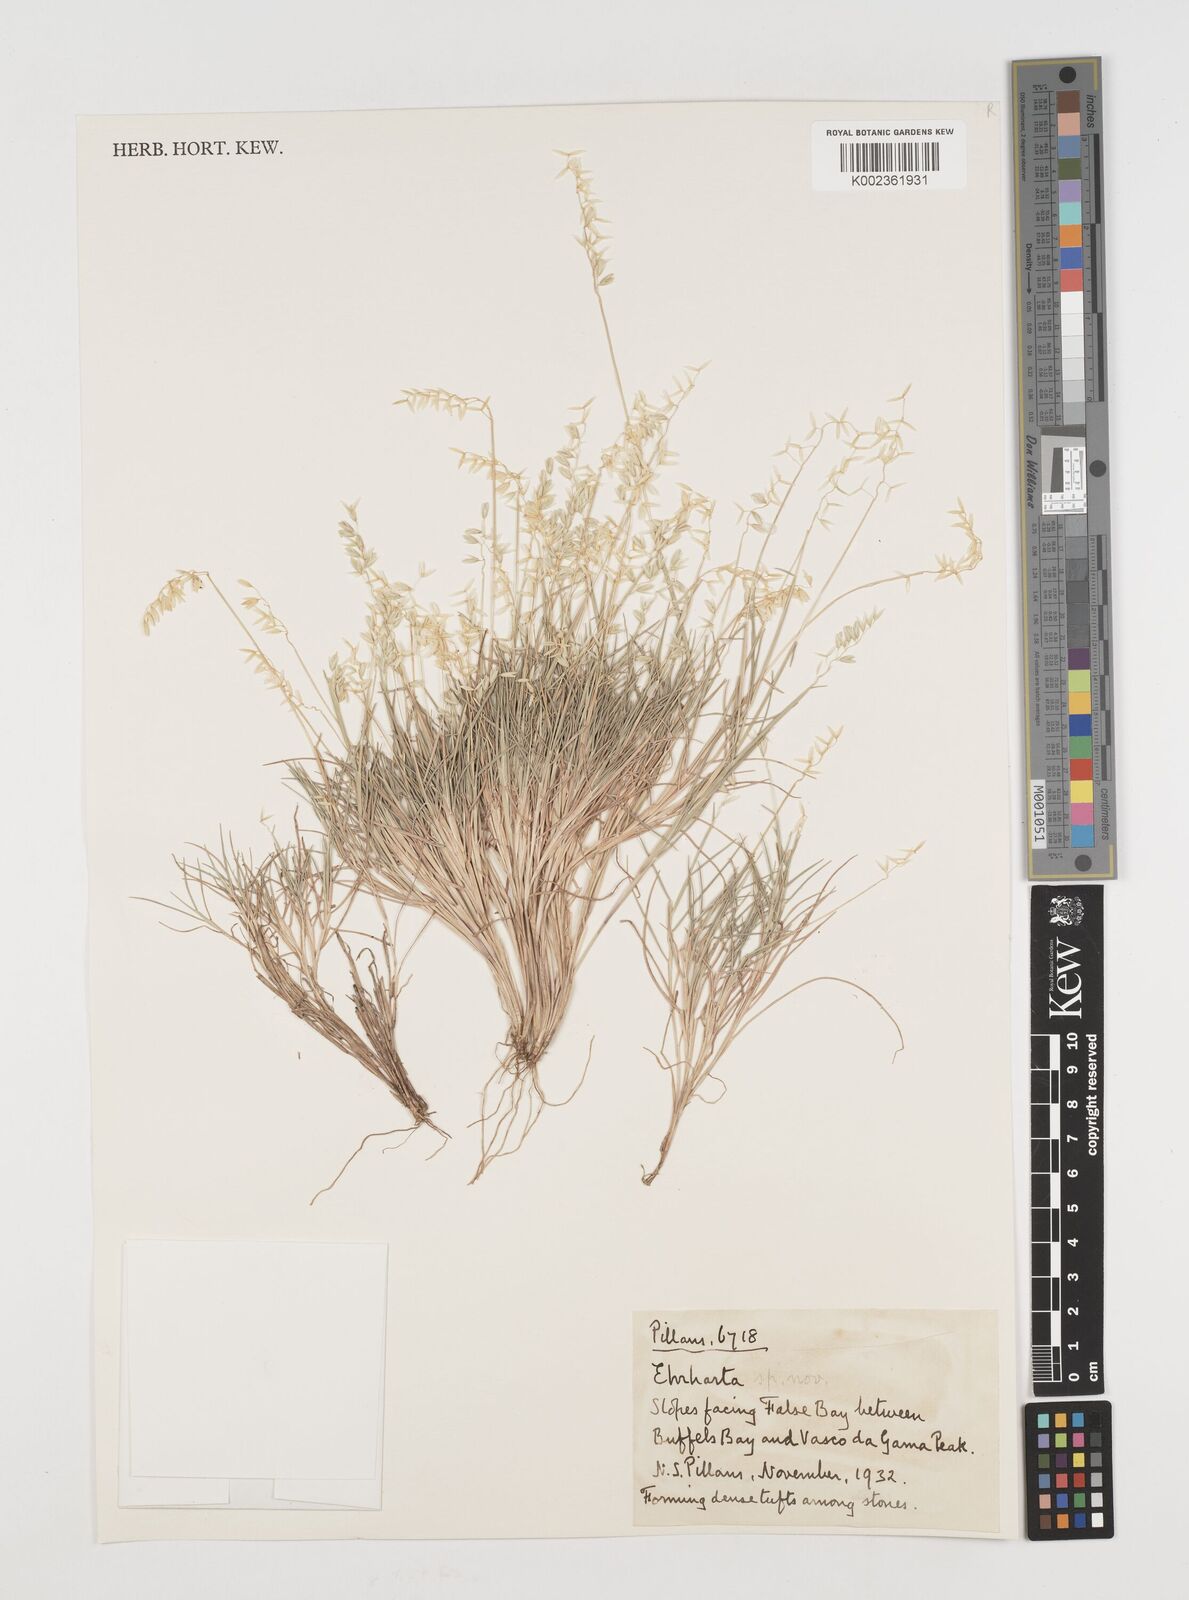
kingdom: Plantae
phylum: Tracheophyta
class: Liliopsida
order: Poales
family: Poaceae
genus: Ehrharta
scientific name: Ehrharta calycina
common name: Perennial veldtgrass
